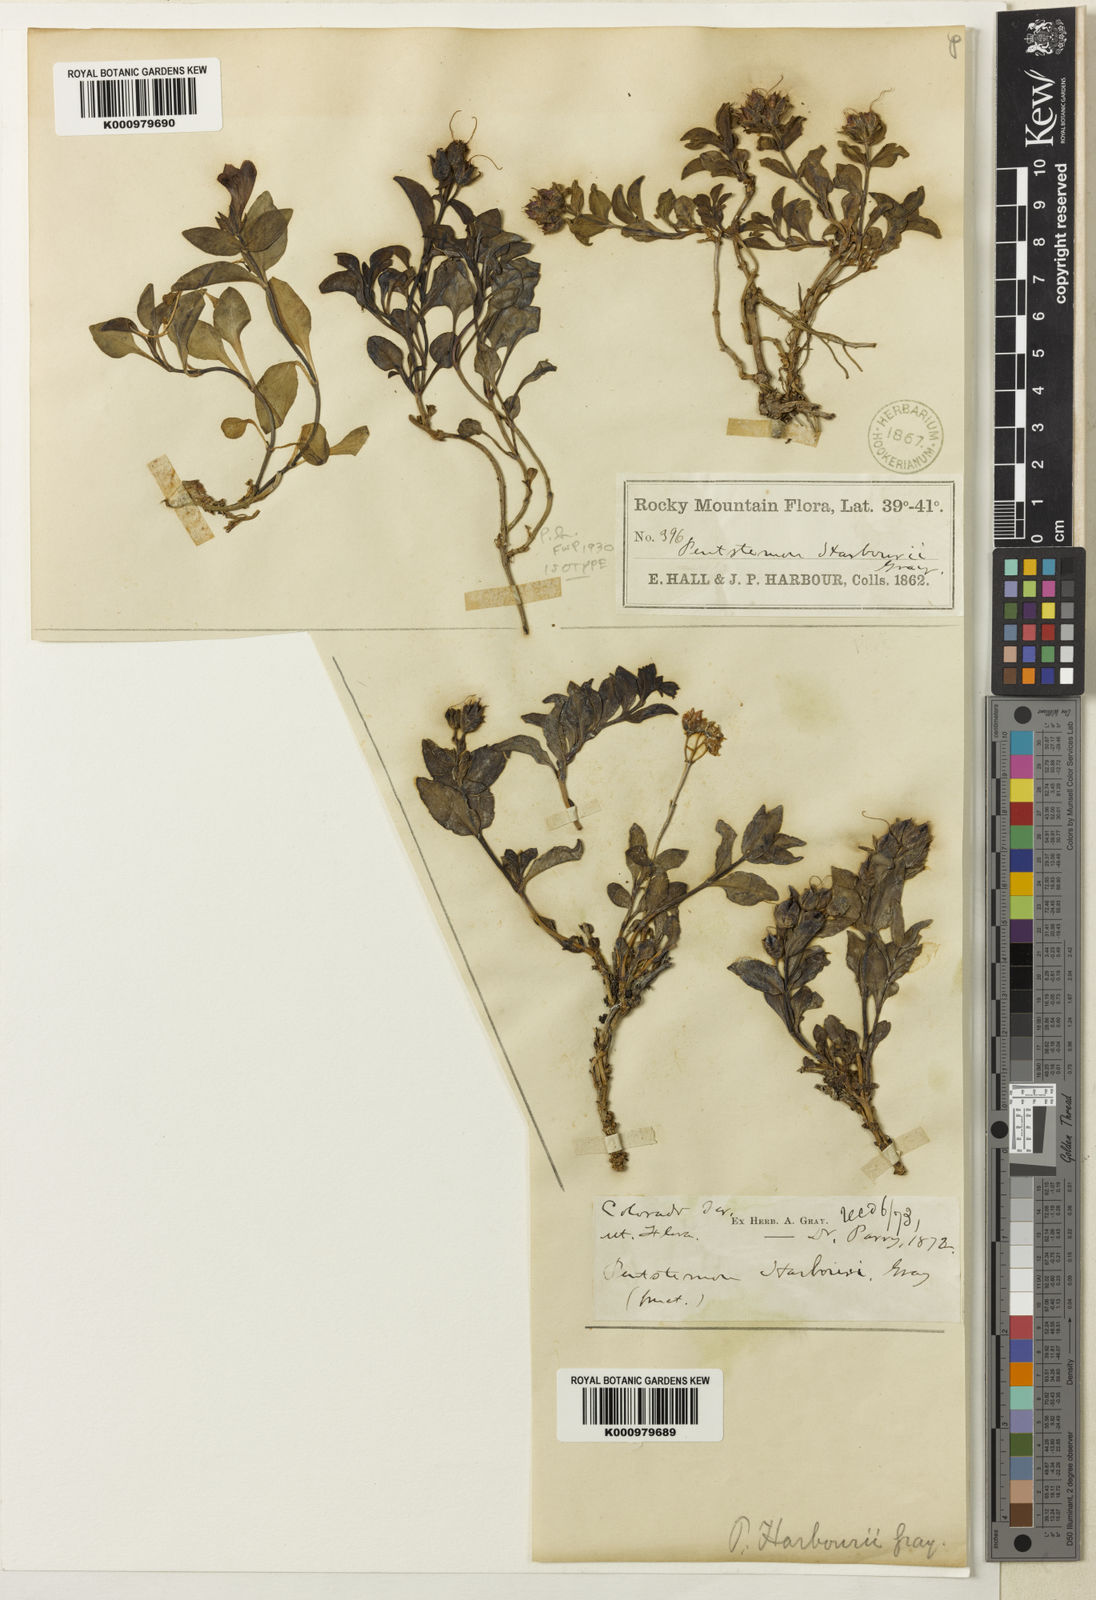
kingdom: Plantae
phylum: Tracheophyta
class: Magnoliopsida
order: Lamiales
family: Plantaginaceae
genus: Penstemon
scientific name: Penstemon harbourii
